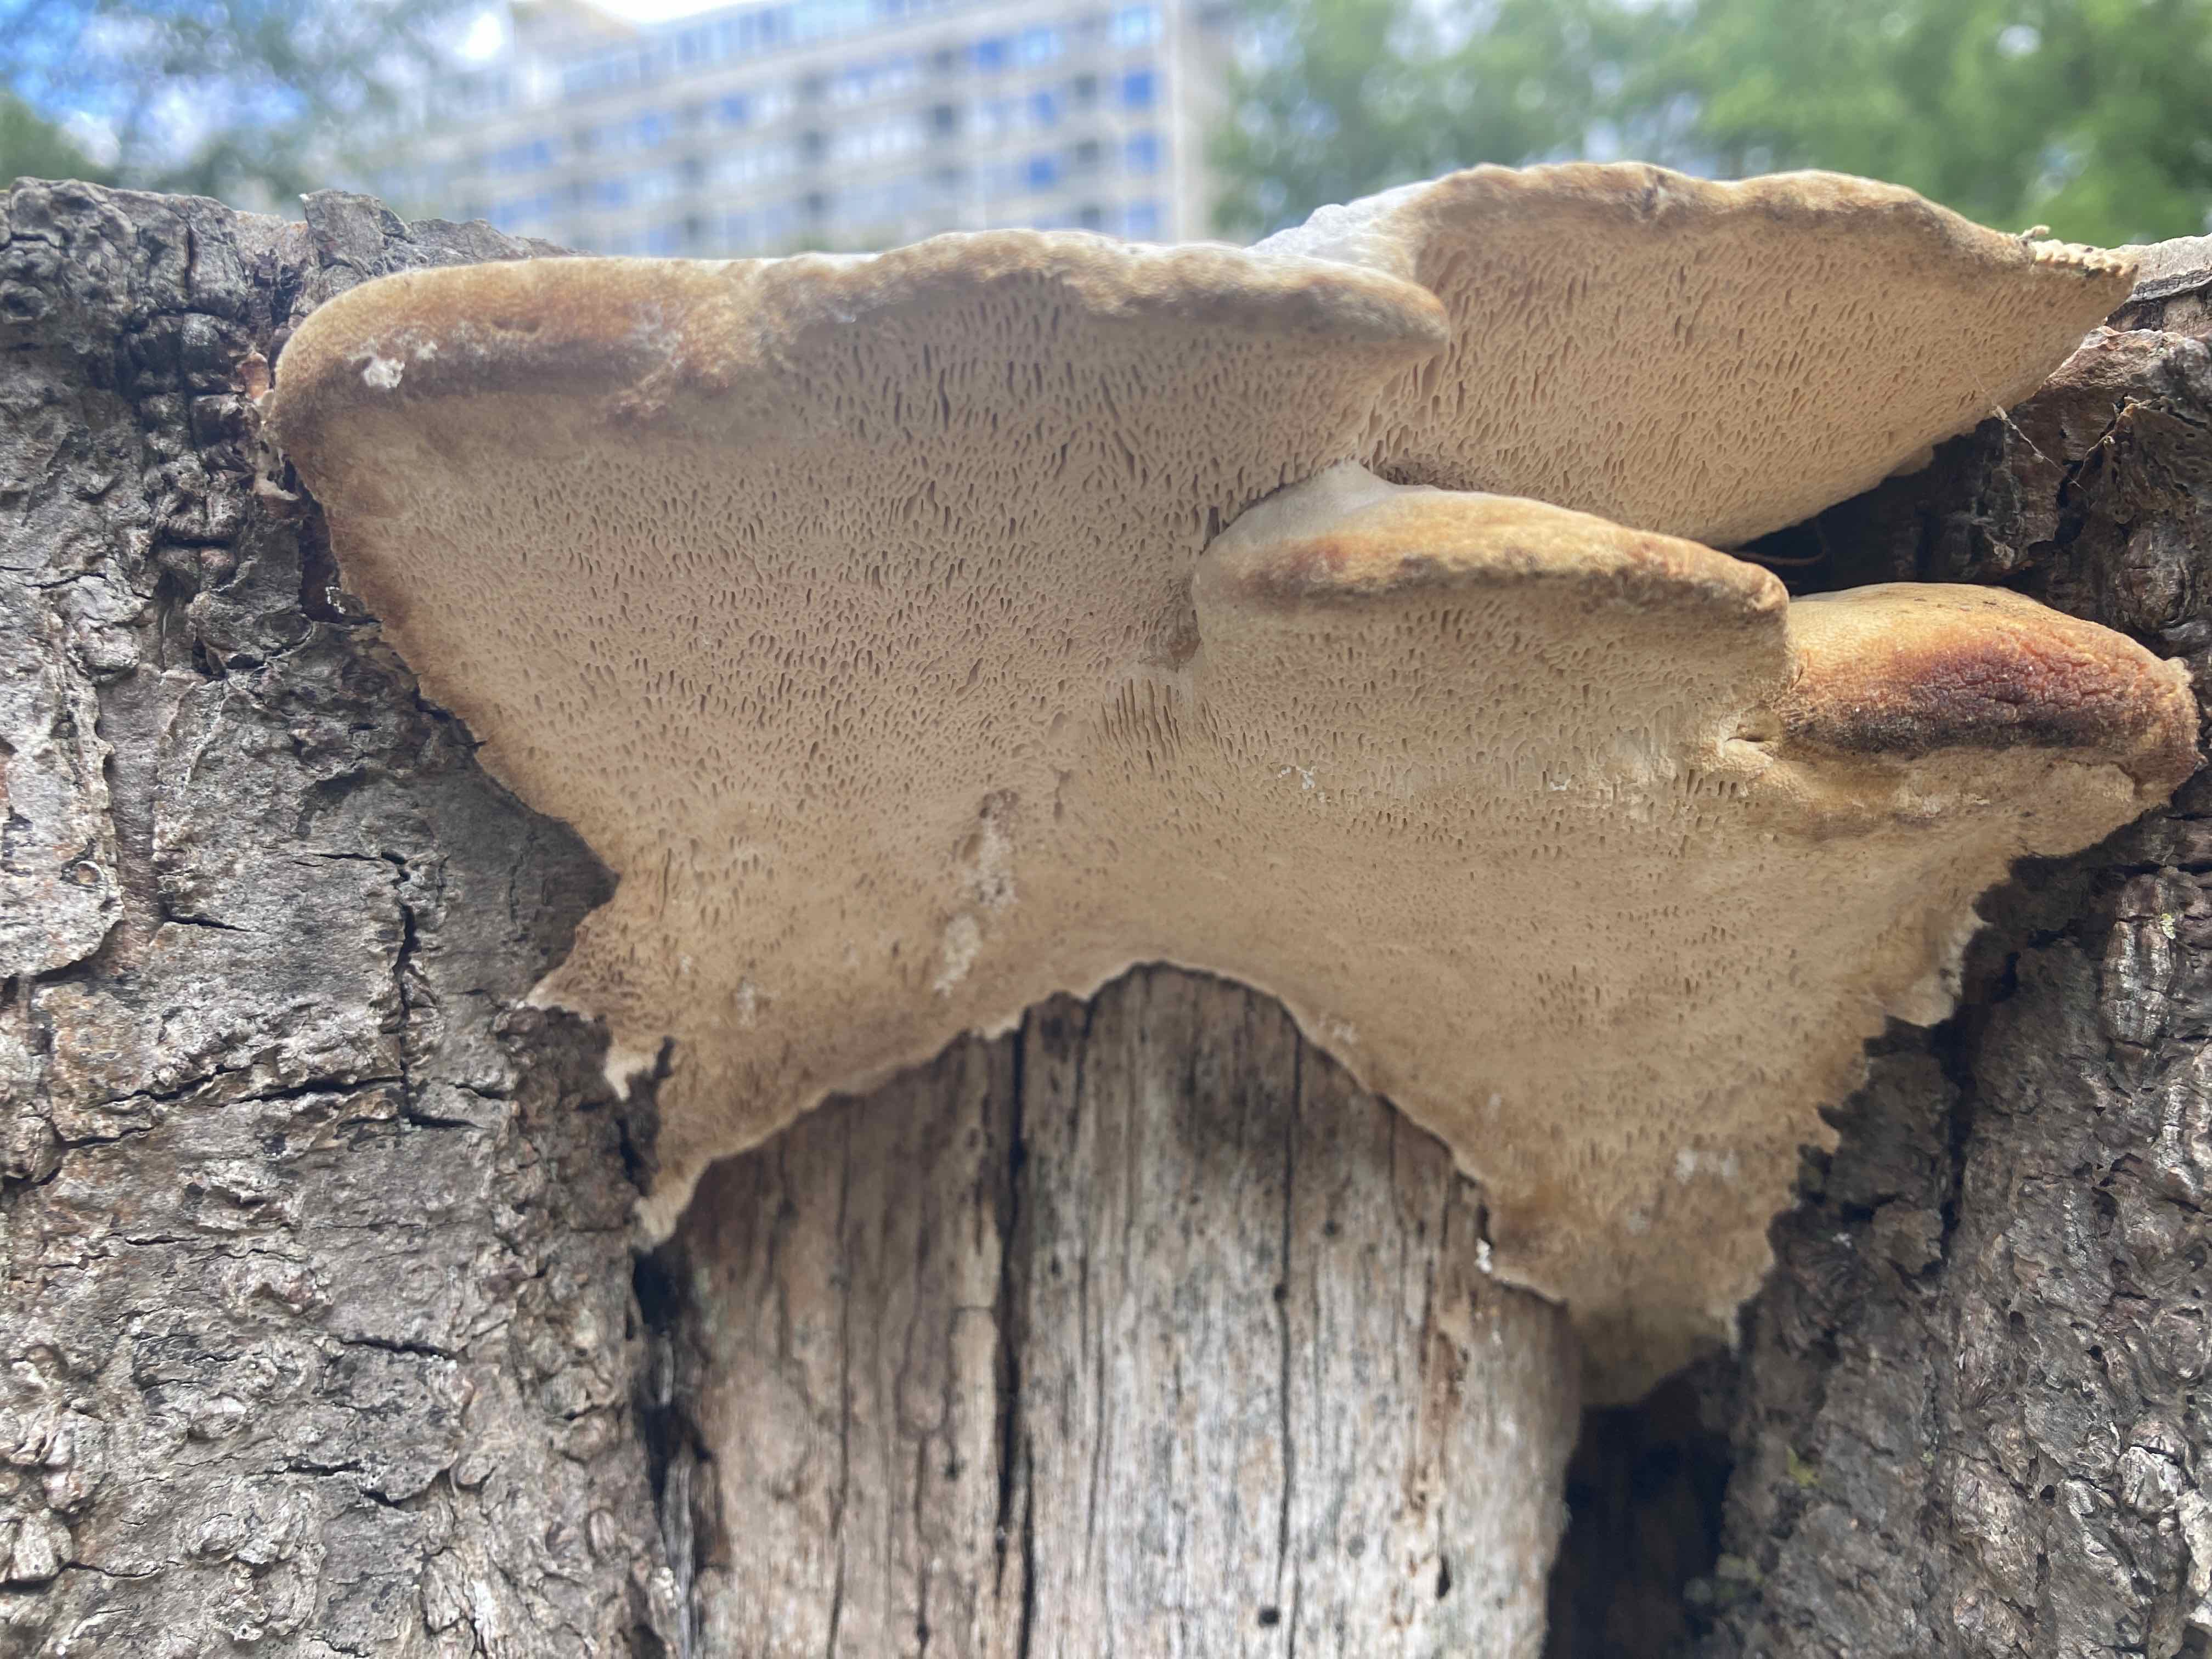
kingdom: Fungi
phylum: Basidiomycota
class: Agaricomycetes
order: Polyporales
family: Polyporaceae
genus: Trametes
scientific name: Trametes gibbosa
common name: puklet læderporesvamp
